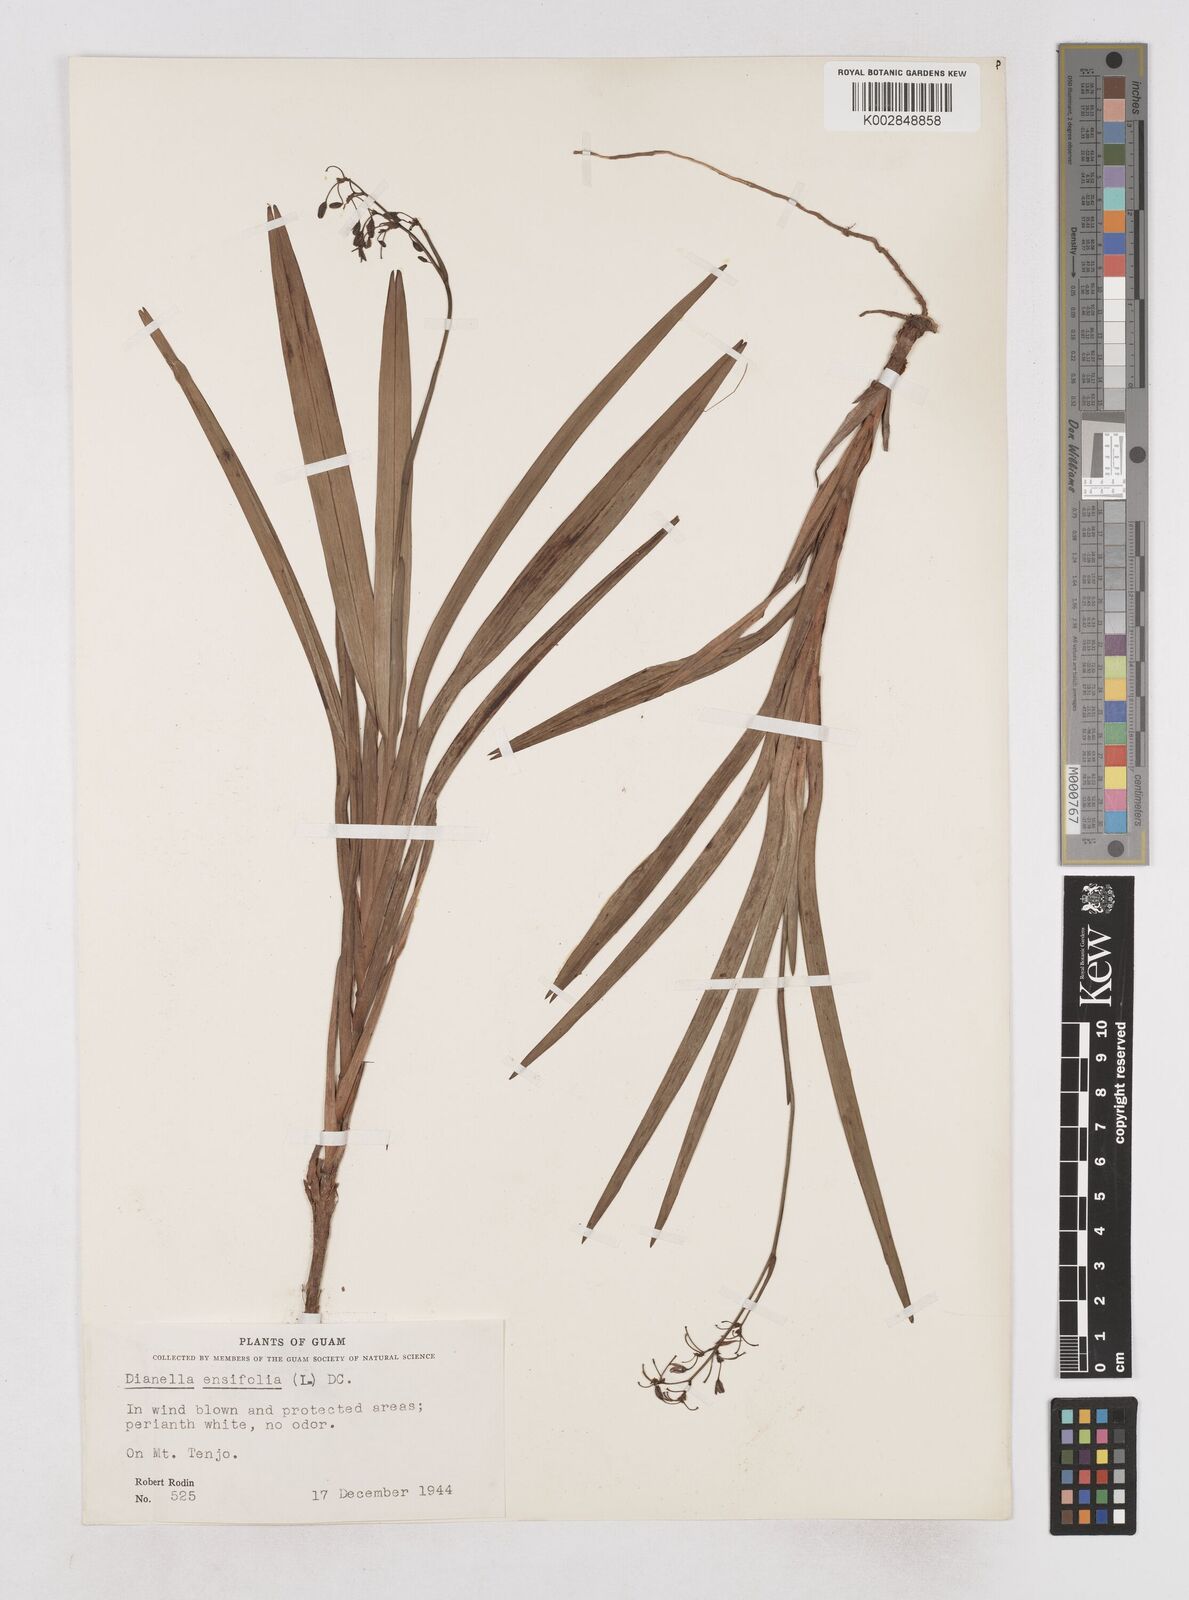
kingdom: Plantae
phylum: Tracheophyta
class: Liliopsida
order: Asparagales
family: Asphodelaceae
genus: Dianella
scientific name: Dianella ensifolia
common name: New zealand lilyplant
